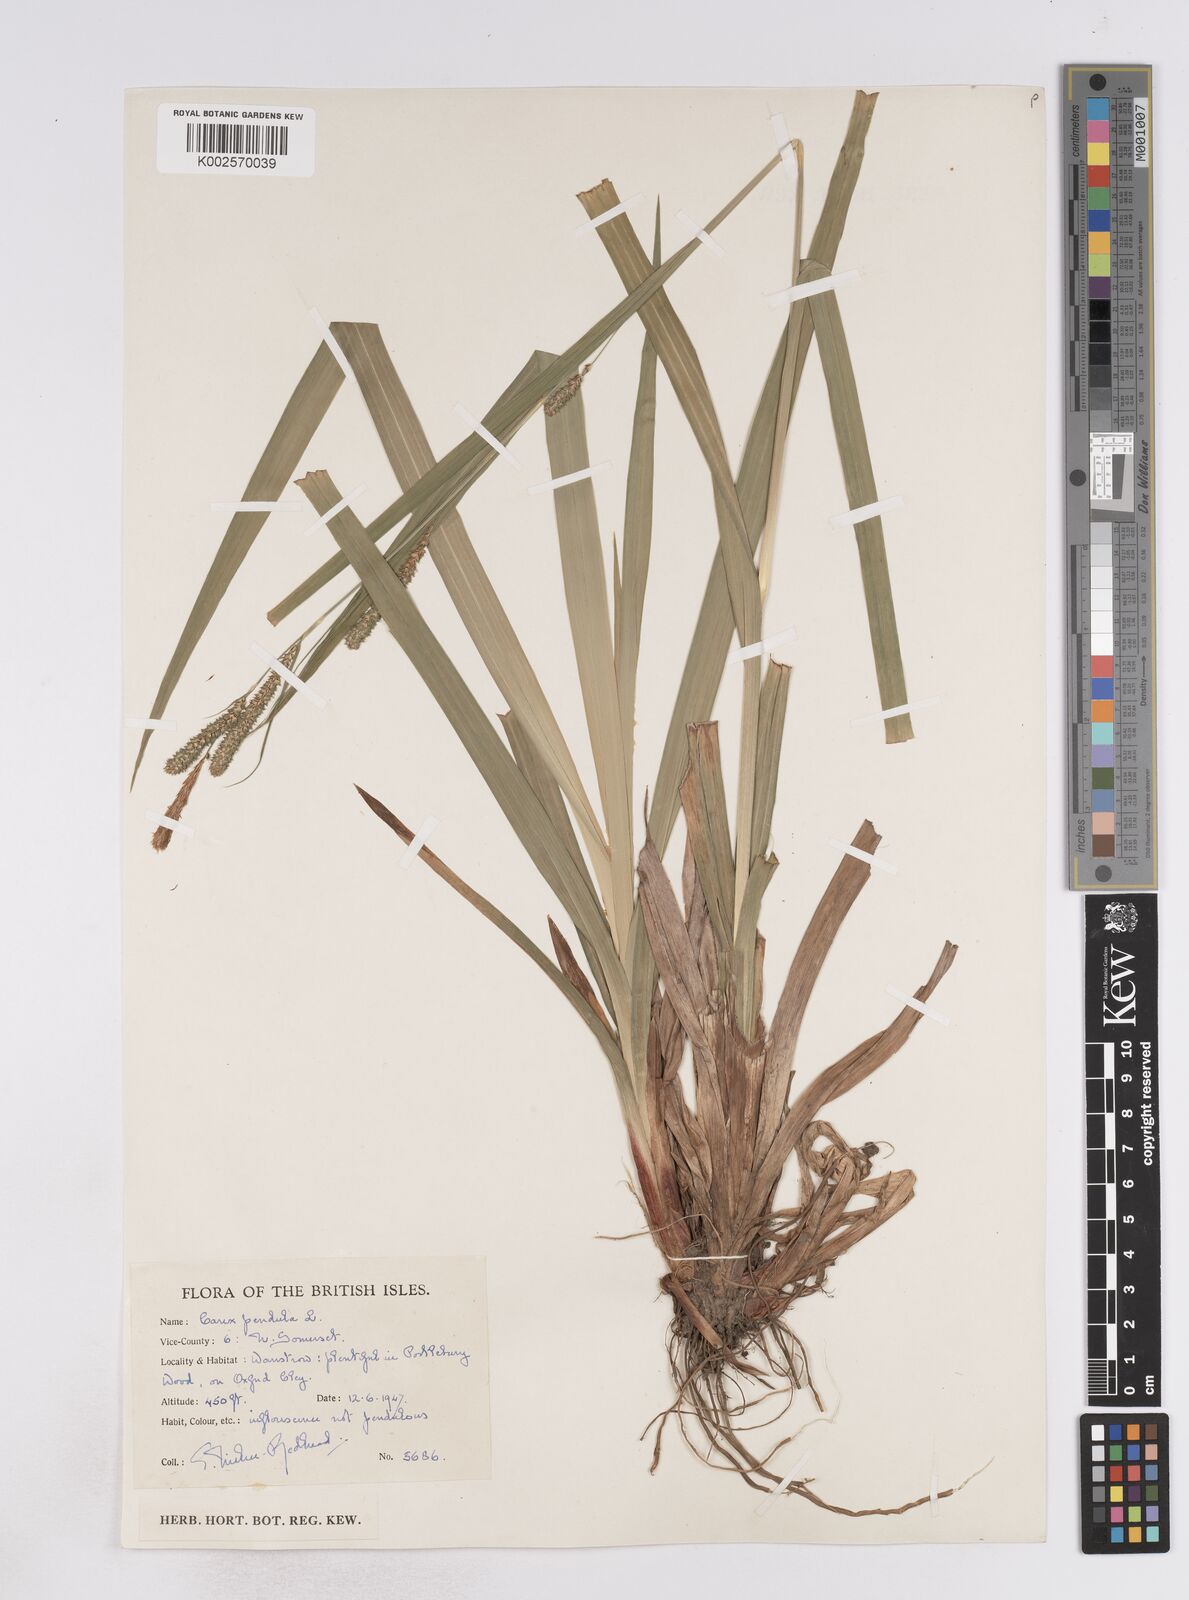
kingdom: Plantae
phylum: Tracheophyta
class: Liliopsida
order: Poales
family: Cyperaceae
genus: Carex
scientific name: Carex pendula
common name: Pendulous sedge
